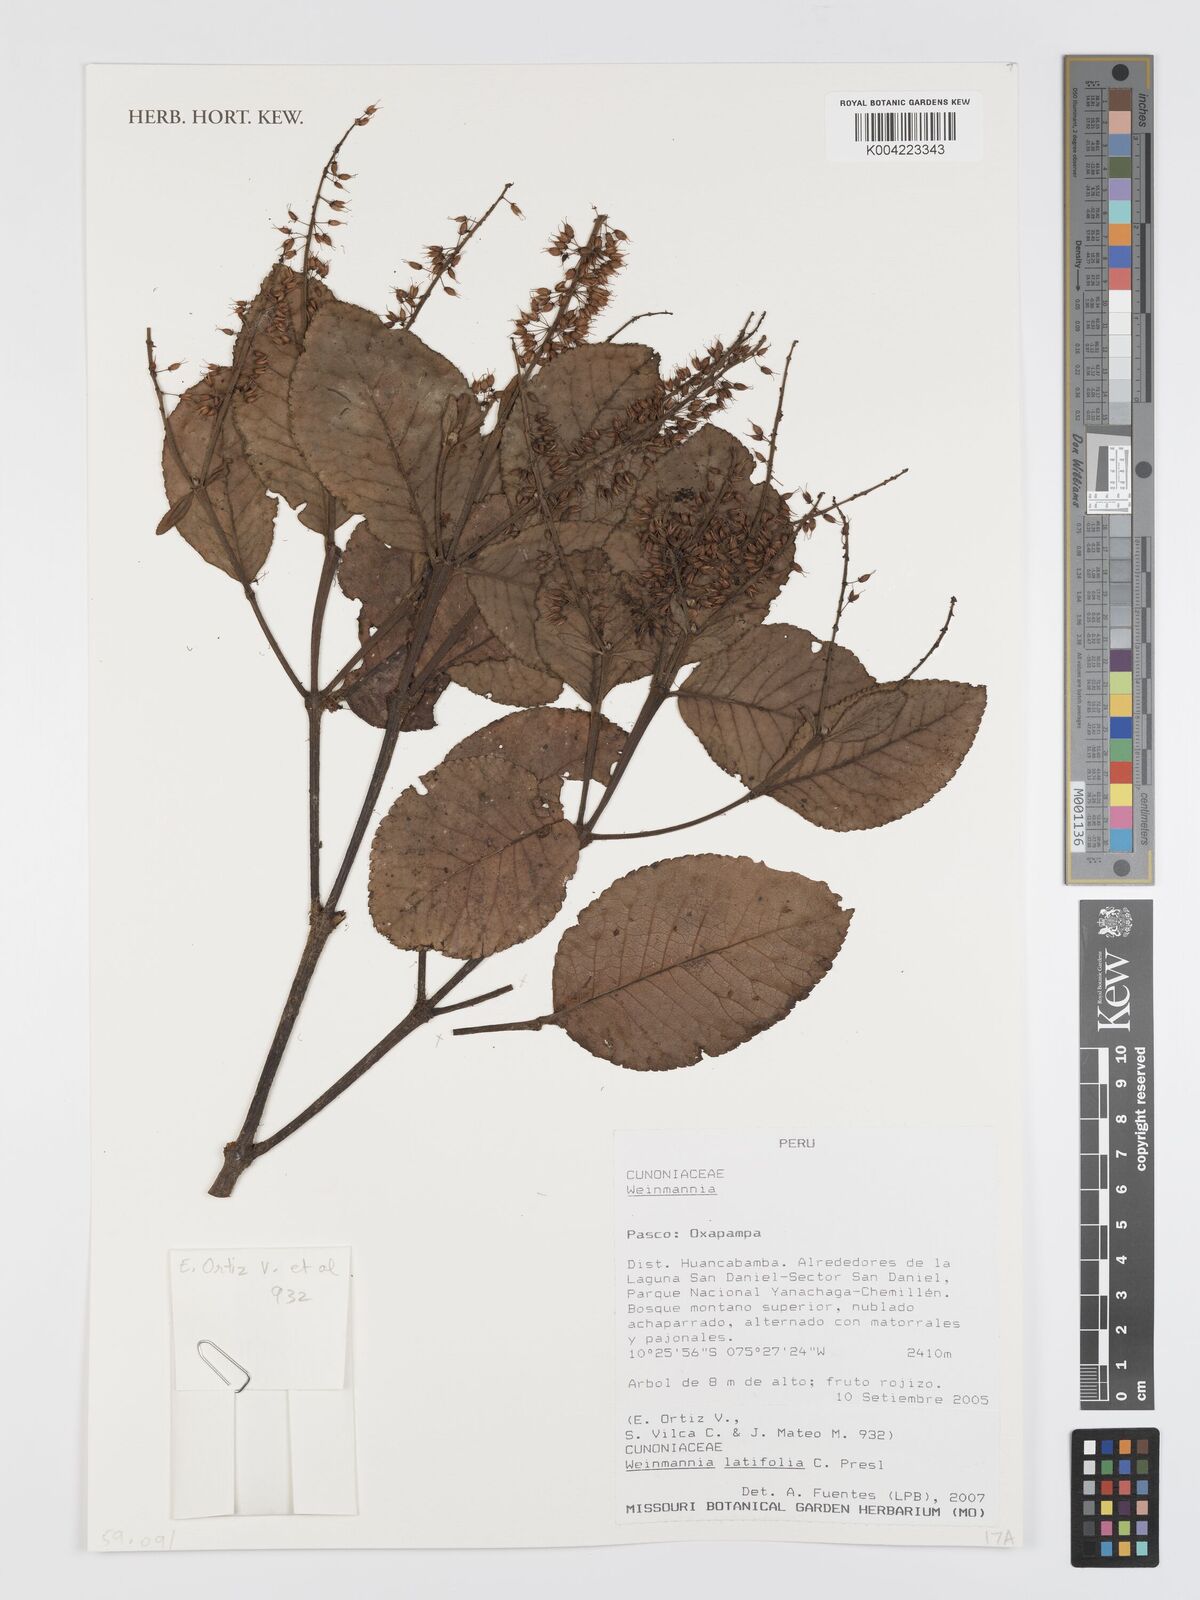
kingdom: Plantae
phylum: Tracheophyta
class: Magnoliopsida
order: Oxalidales
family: Cunoniaceae
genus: Weinmannia
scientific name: Weinmannia latifolia
